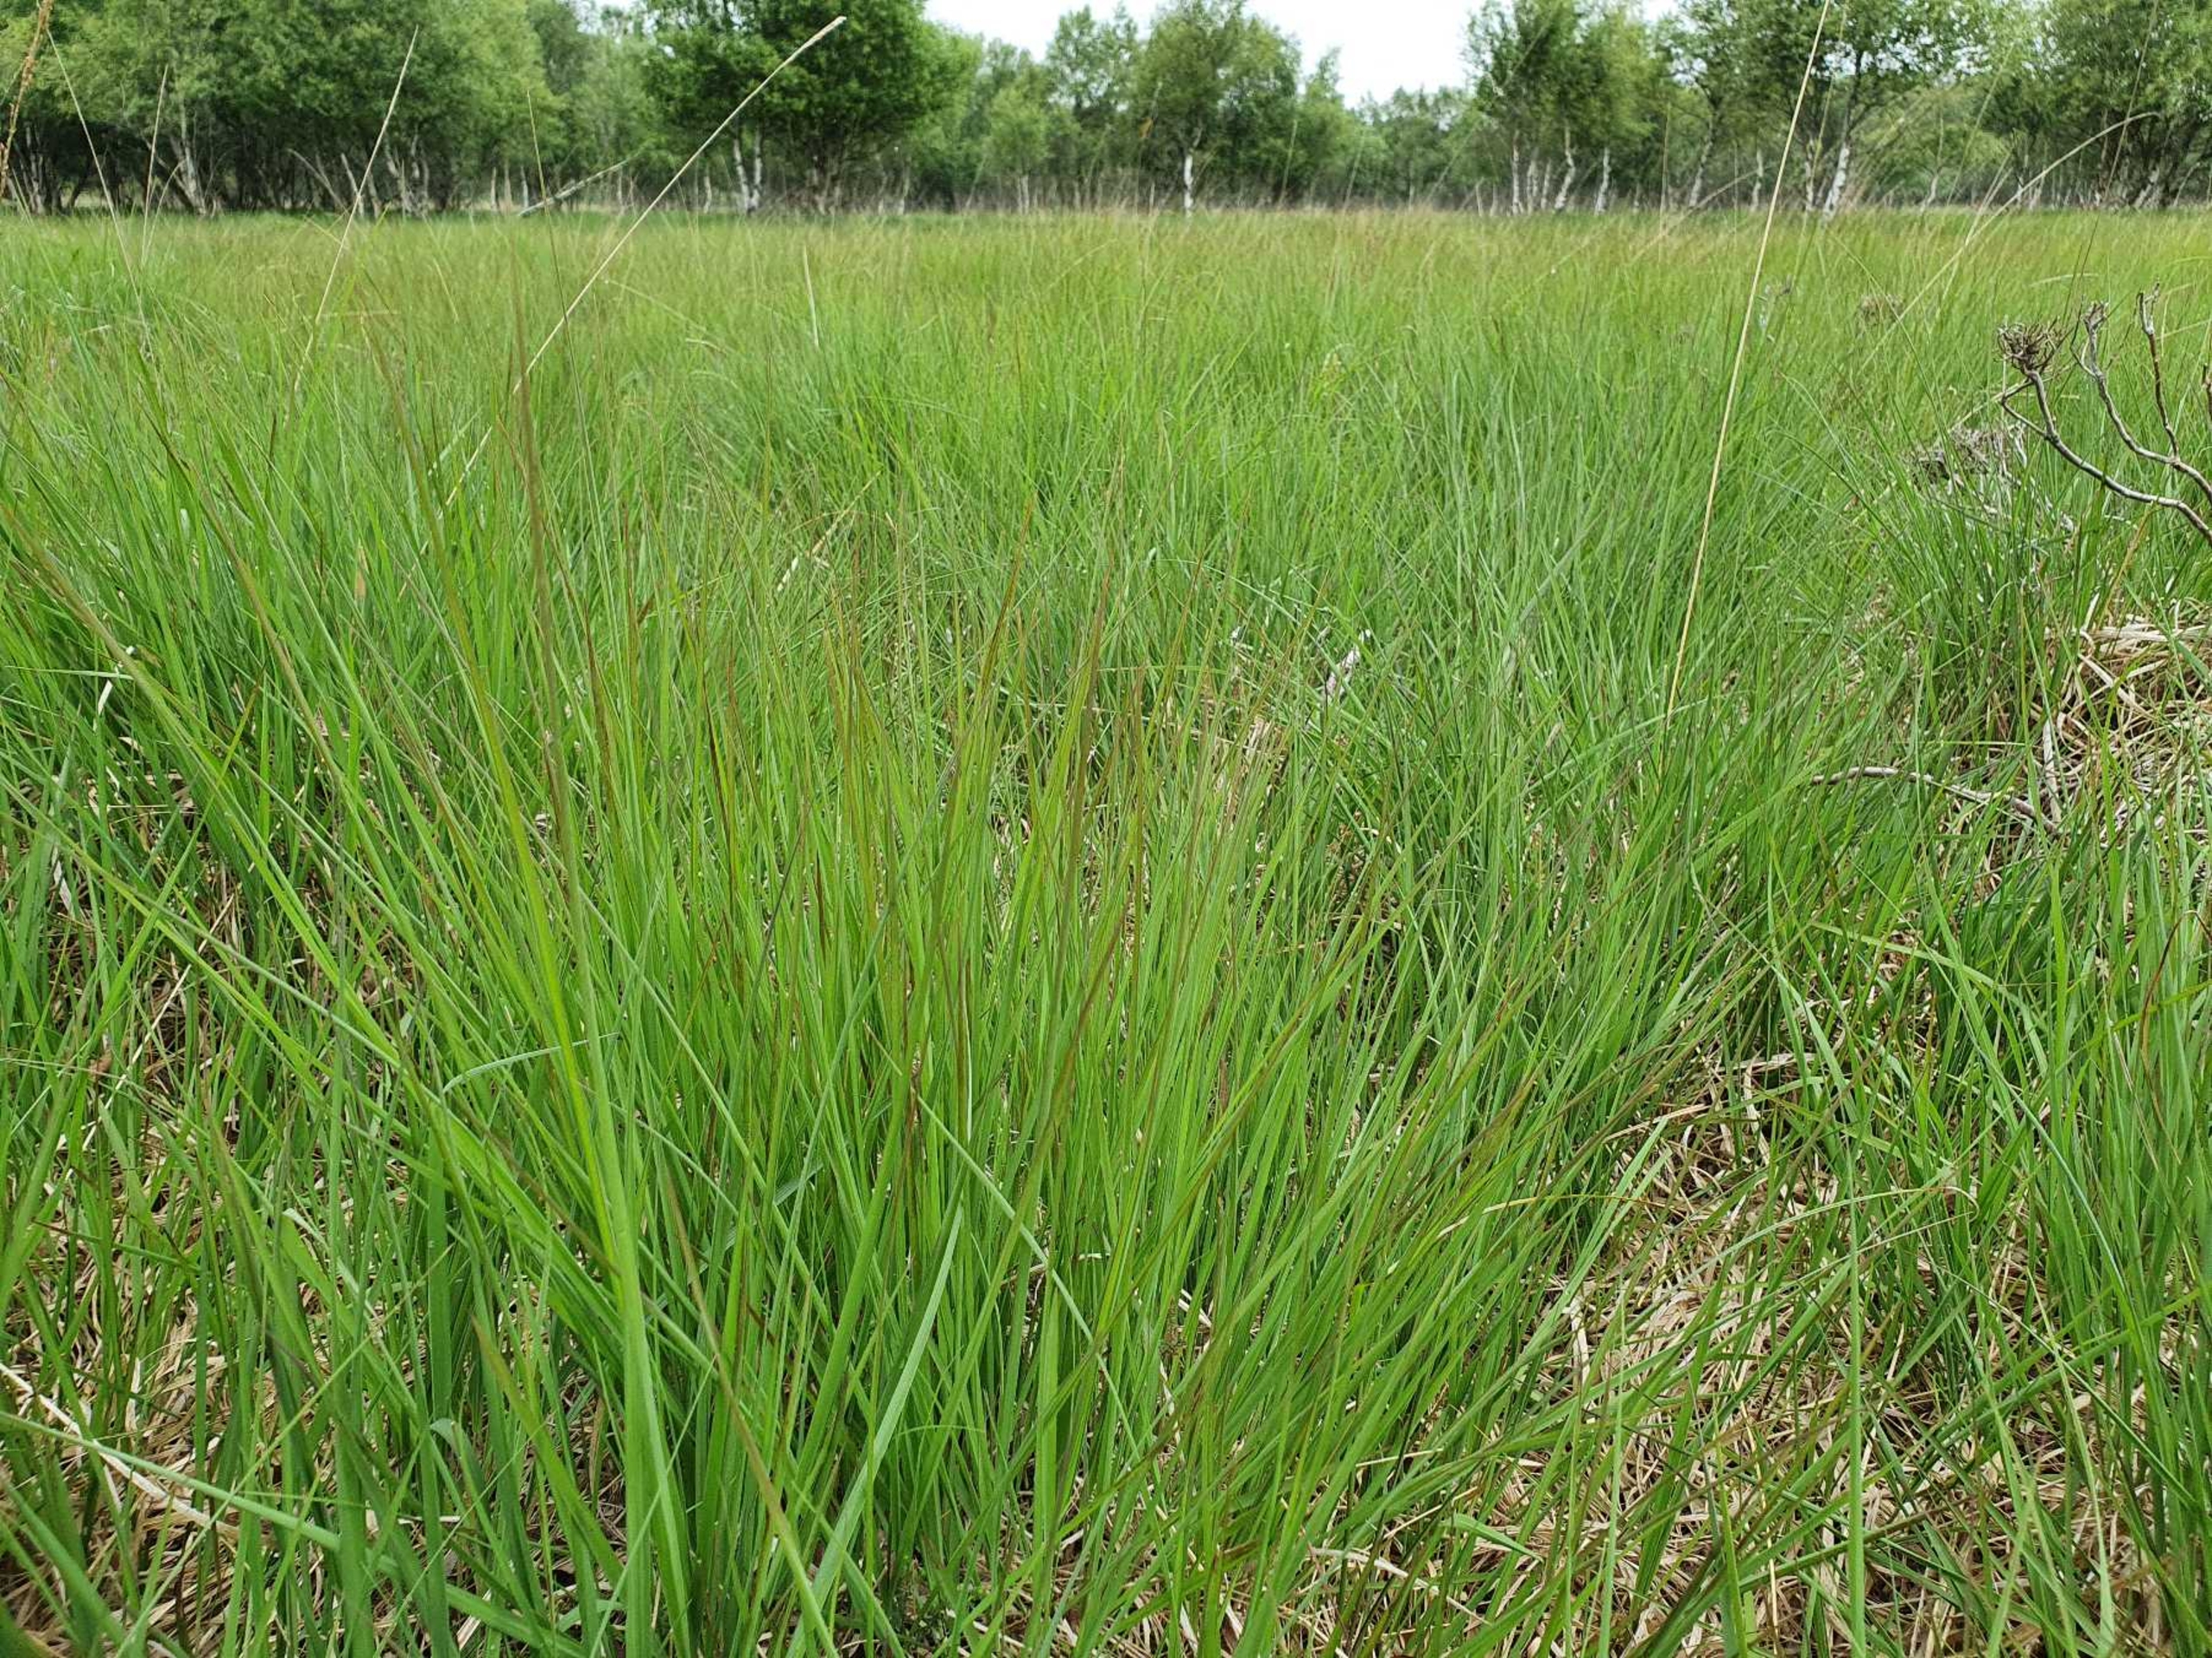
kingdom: Plantae
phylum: Tracheophyta
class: Liliopsida
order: Poales
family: Poaceae
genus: Molinia
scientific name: Molinia caerulea
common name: Blåtop
